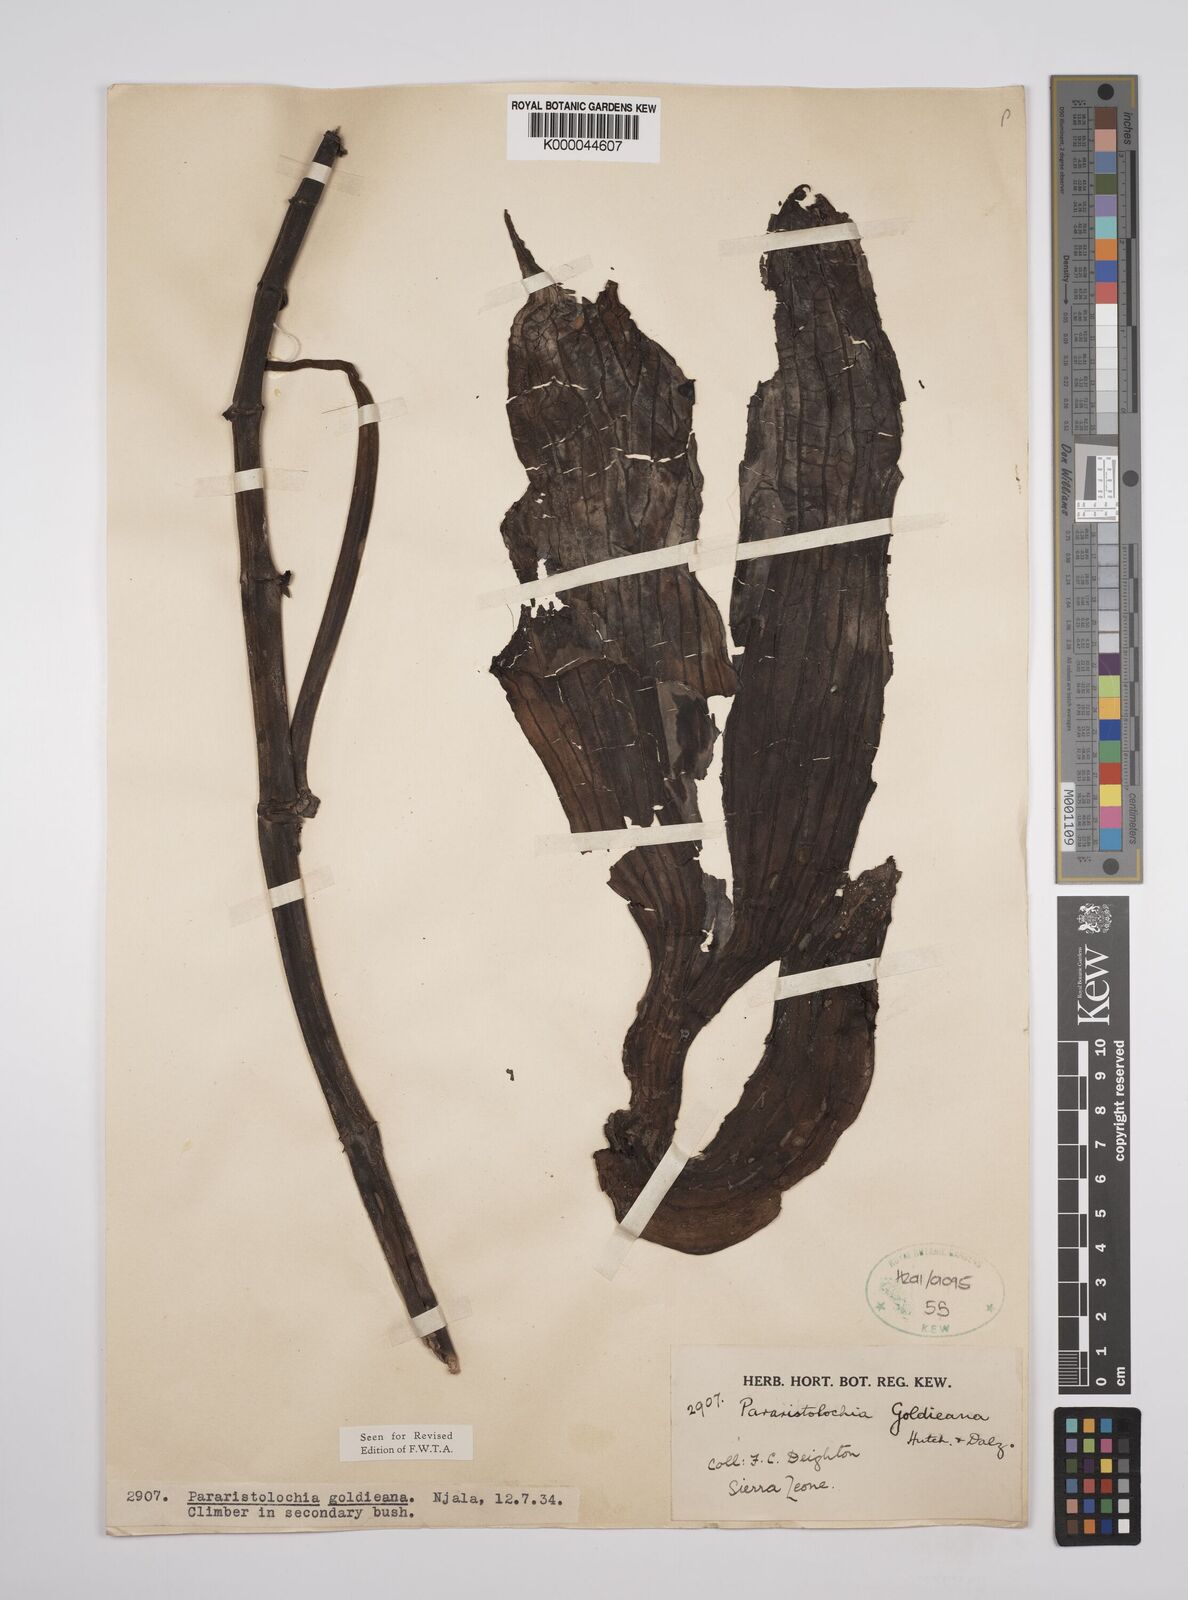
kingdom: Plantae
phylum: Tracheophyta
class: Magnoliopsida
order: Piperales
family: Aristolochiaceae
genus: Aristolochia
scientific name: Aristolochia goldieana
